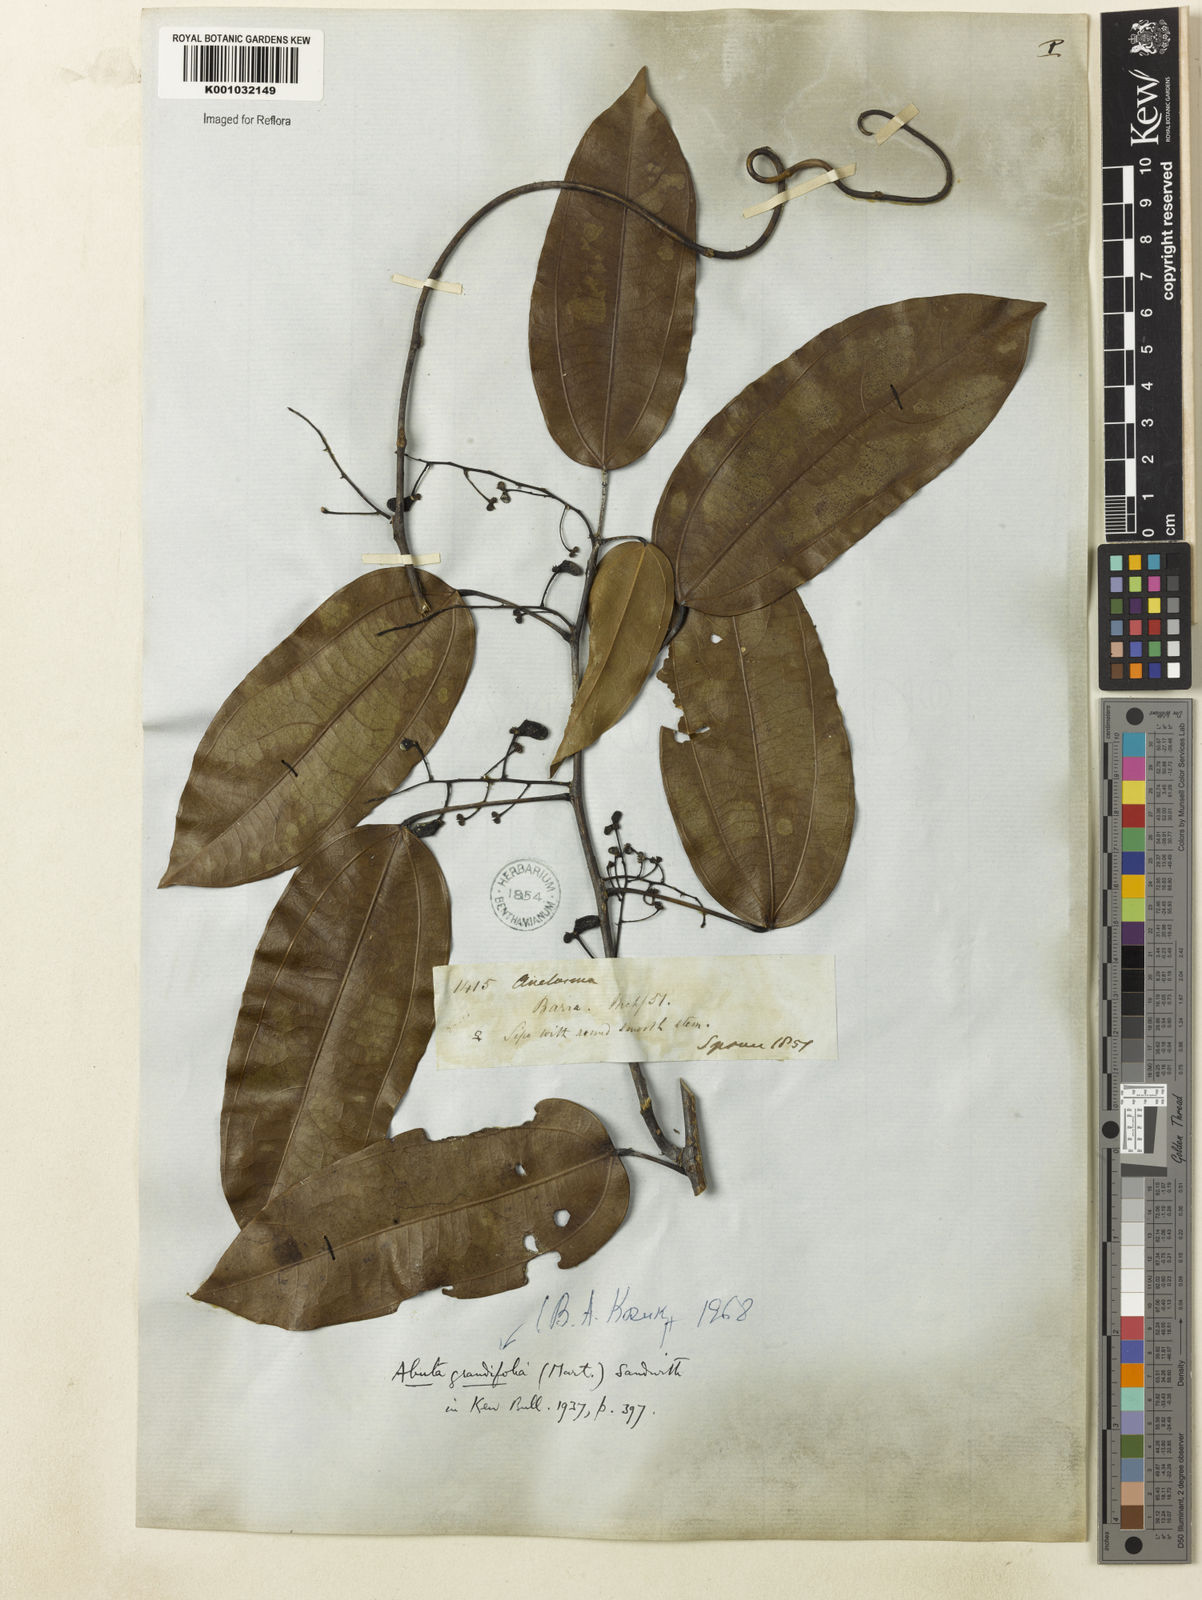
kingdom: Plantae
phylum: Tracheophyta
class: Magnoliopsida
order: Ranunculales
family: Menispermaceae
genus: Abuta
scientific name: Abuta grandifolia
